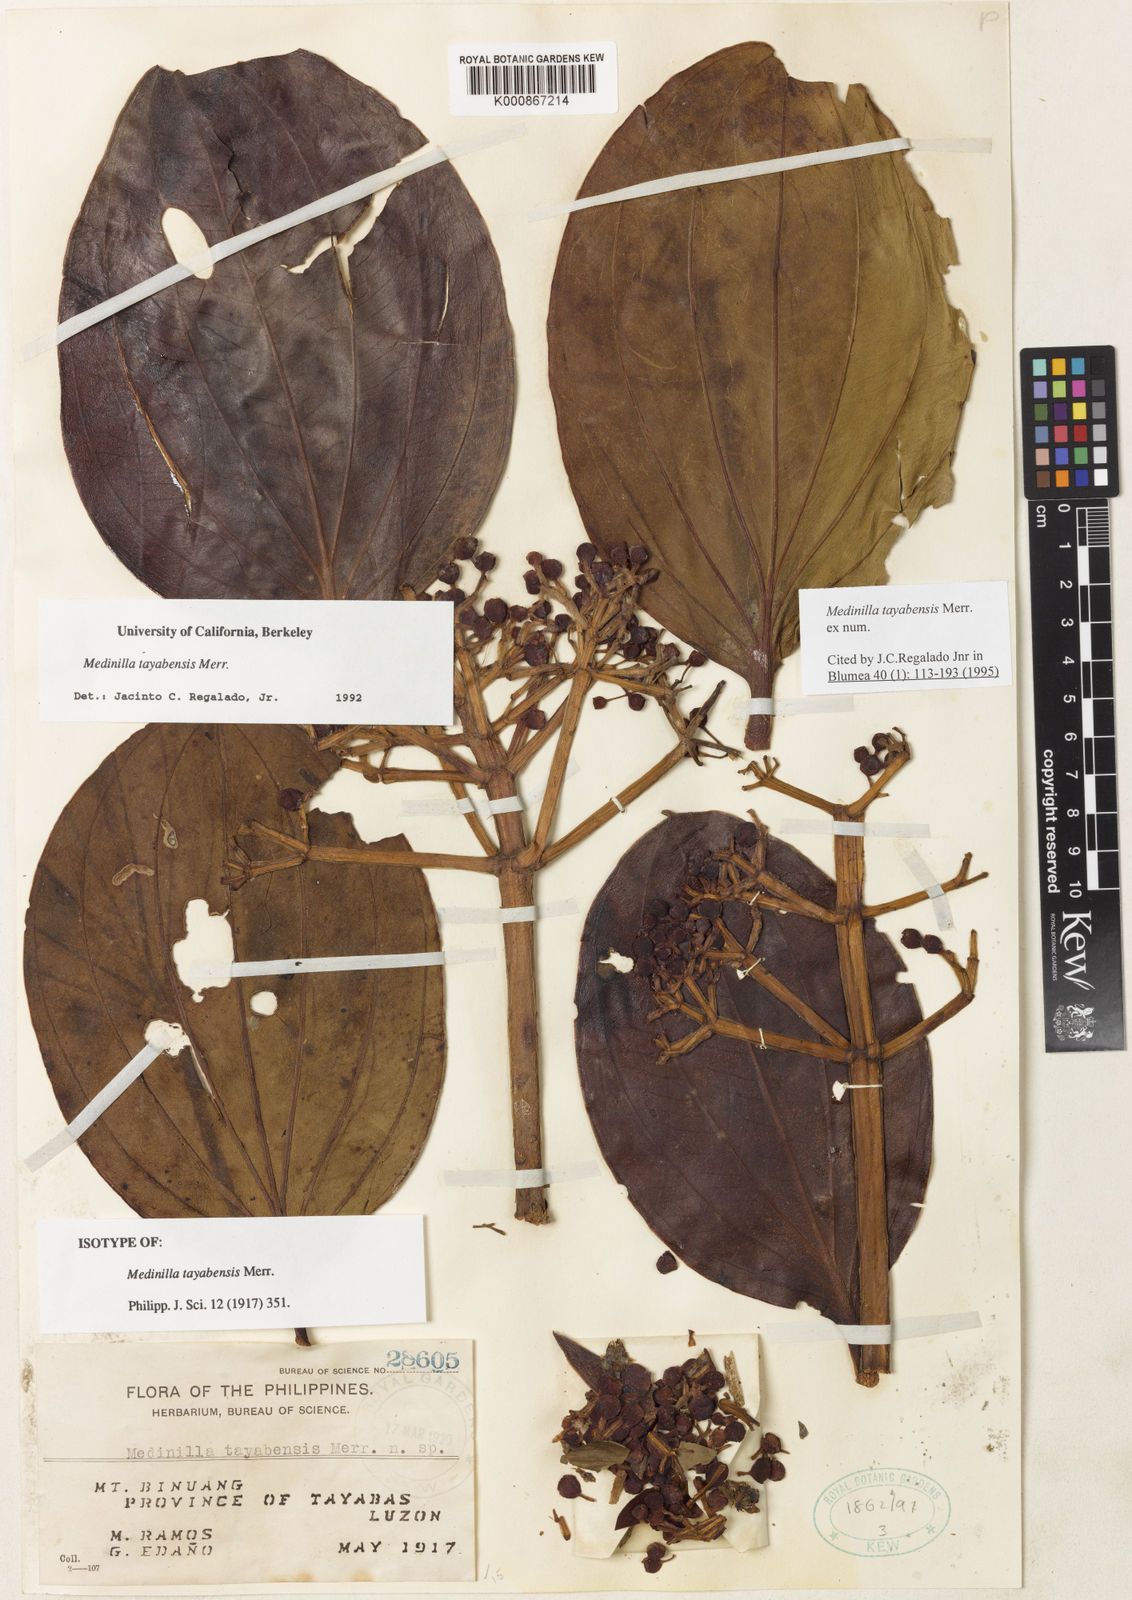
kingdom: Plantae
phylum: Tracheophyta
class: Magnoliopsida
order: Myrtales
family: Melastomataceae
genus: Medinilla
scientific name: Medinilla tayabensis
